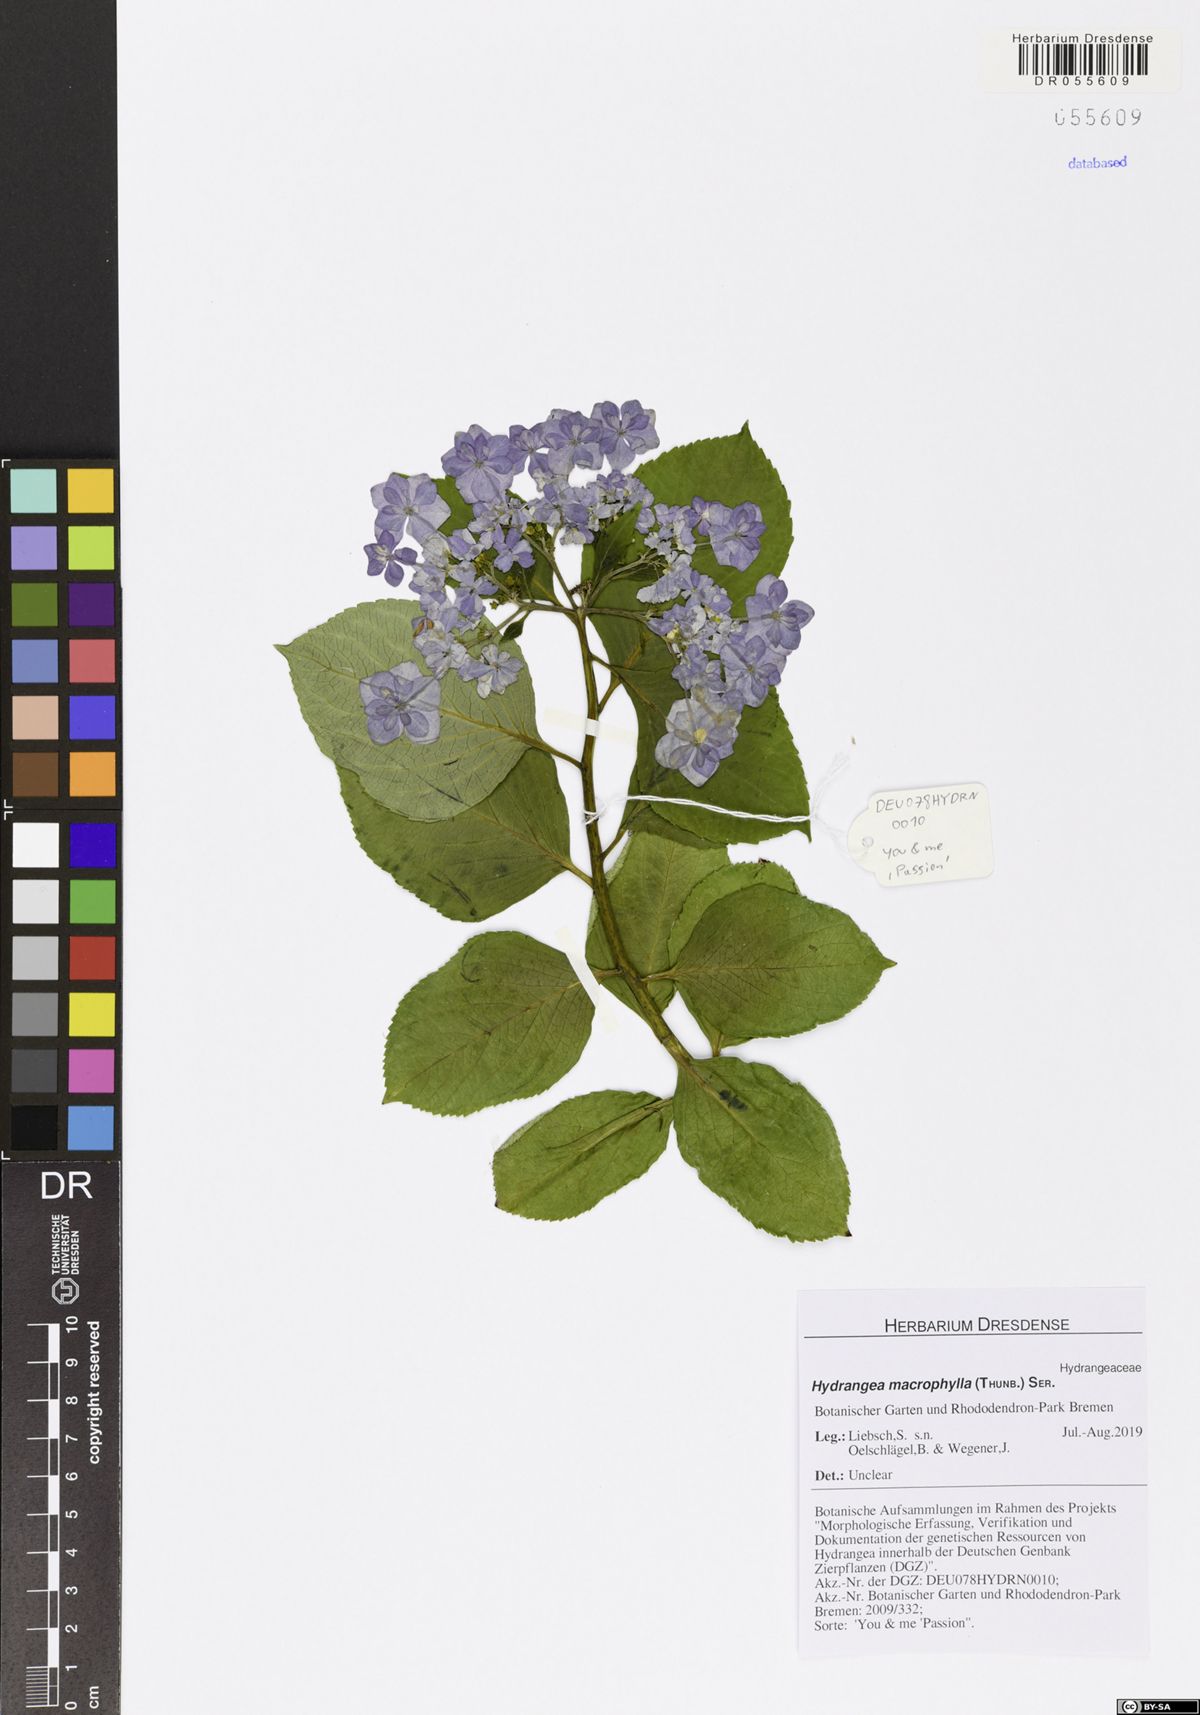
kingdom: Plantae
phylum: Tracheophyta
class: Magnoliopsida
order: Cornales
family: Hydrangeaceae
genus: Hydrangea
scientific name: Hydrangea macrophylla
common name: Hydrangea
